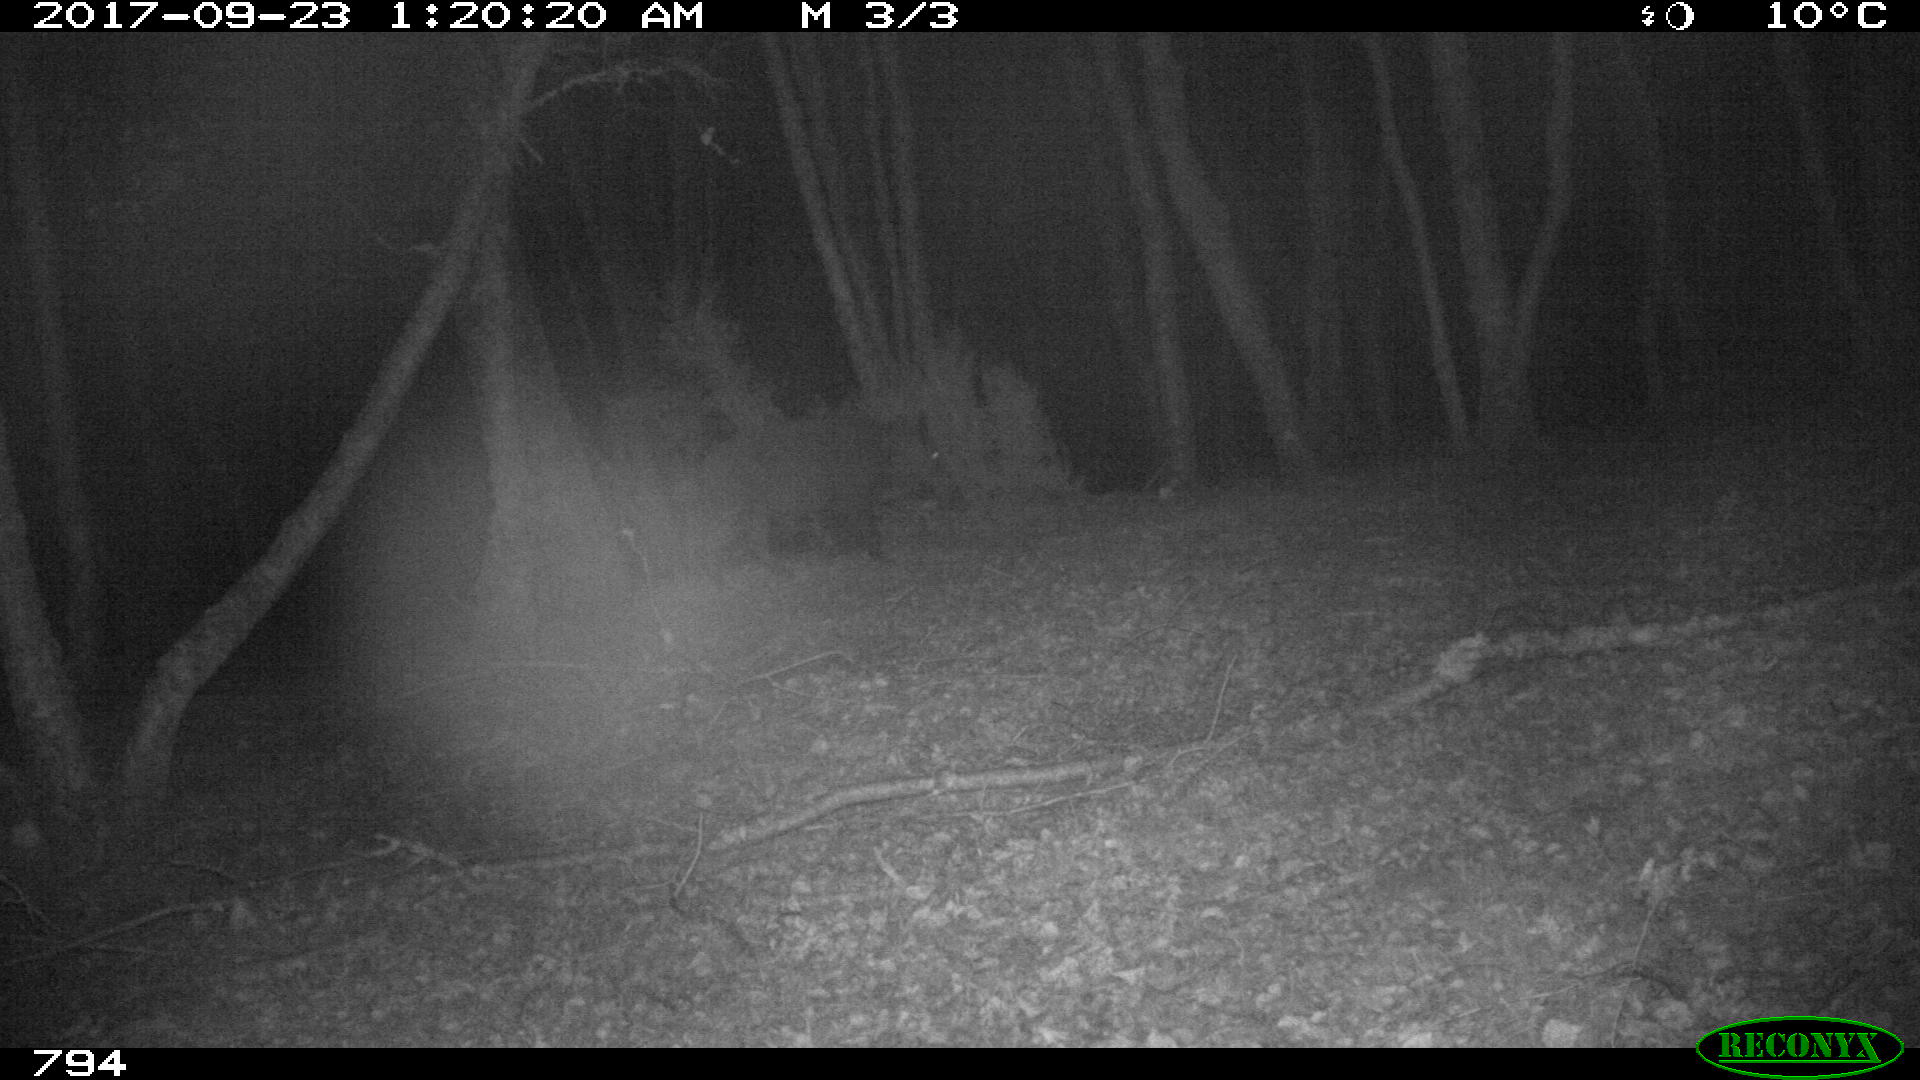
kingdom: Animalia
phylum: Chordata
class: Mammalia
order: Artiodactyla
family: Suidae
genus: Sus
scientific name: Sus scrofa
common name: Wild boar
